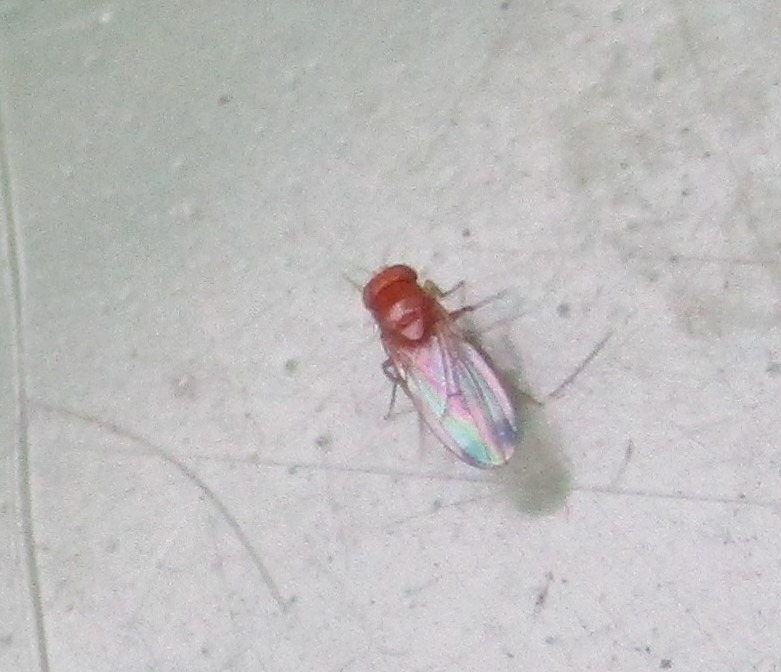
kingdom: Animalia
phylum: Arthropoda
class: Insecta
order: Diptera
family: Drosophilidae
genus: Drosophila
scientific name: Drosophila suzukii
